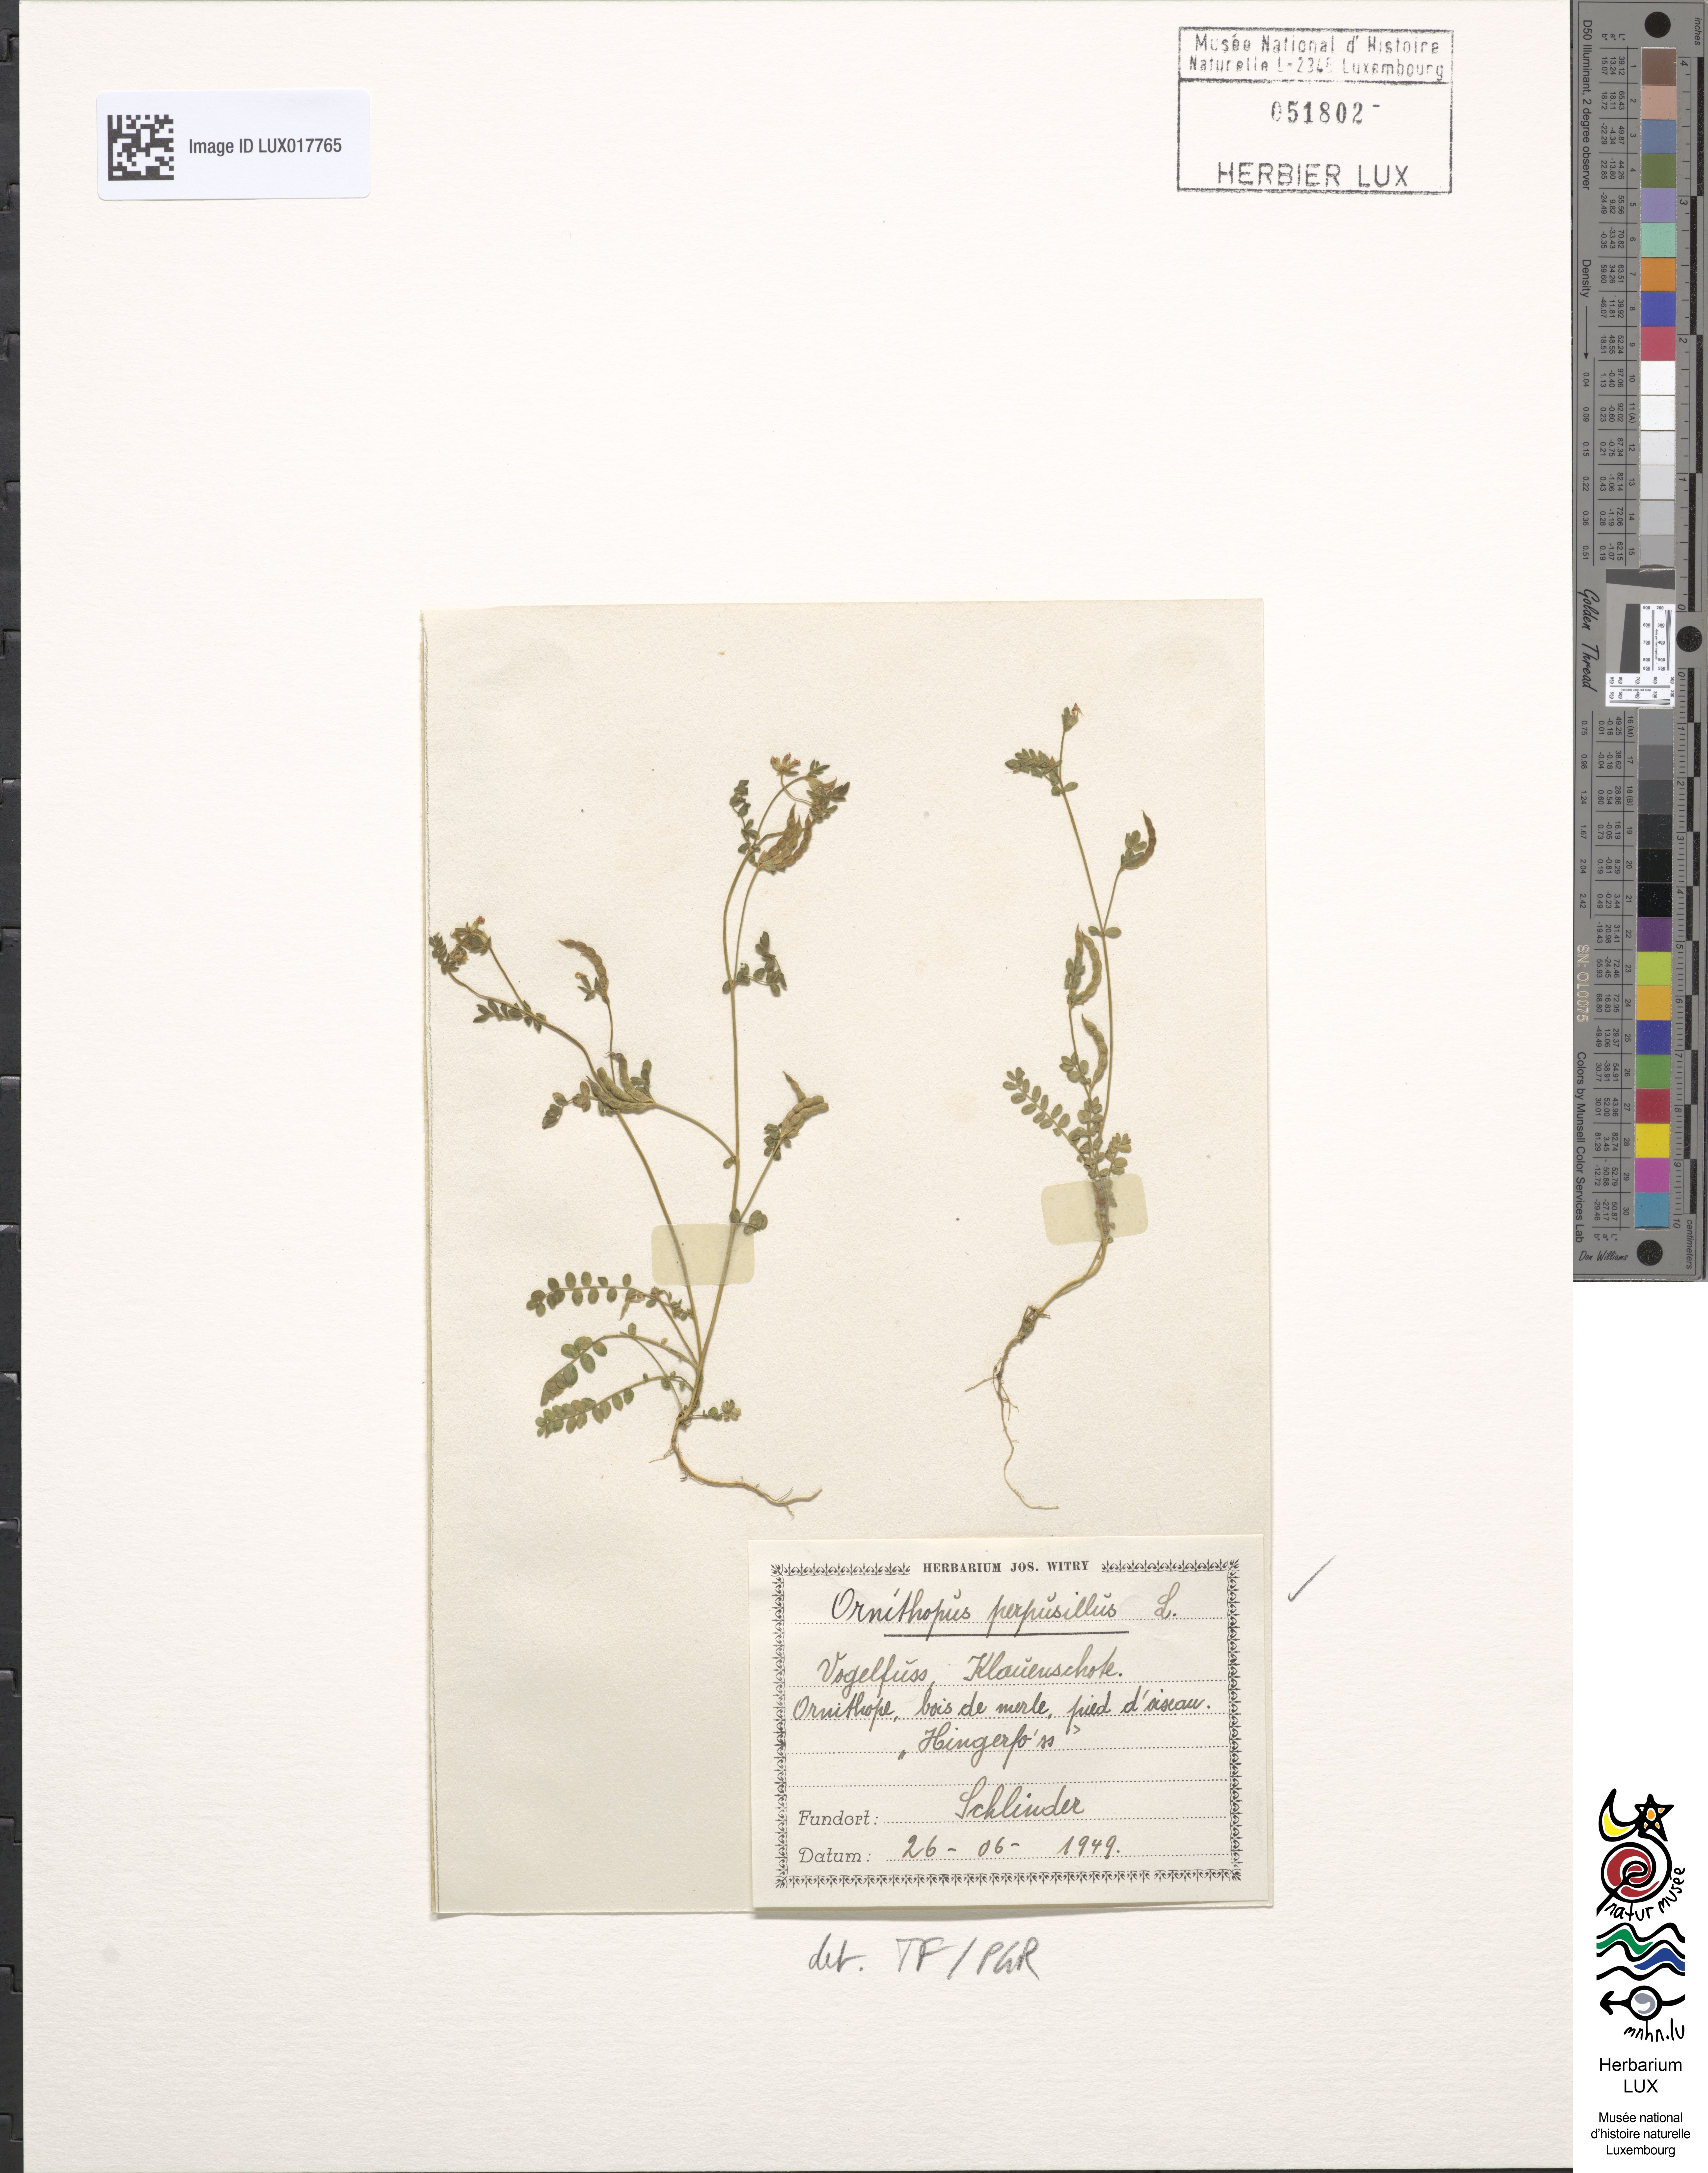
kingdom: Plantae
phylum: Tracheophyta
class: Magnoliopsida
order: Fabales
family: Fabaceae
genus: Ornithopus
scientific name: Ornithopus perpusillus
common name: Bird's-foot
